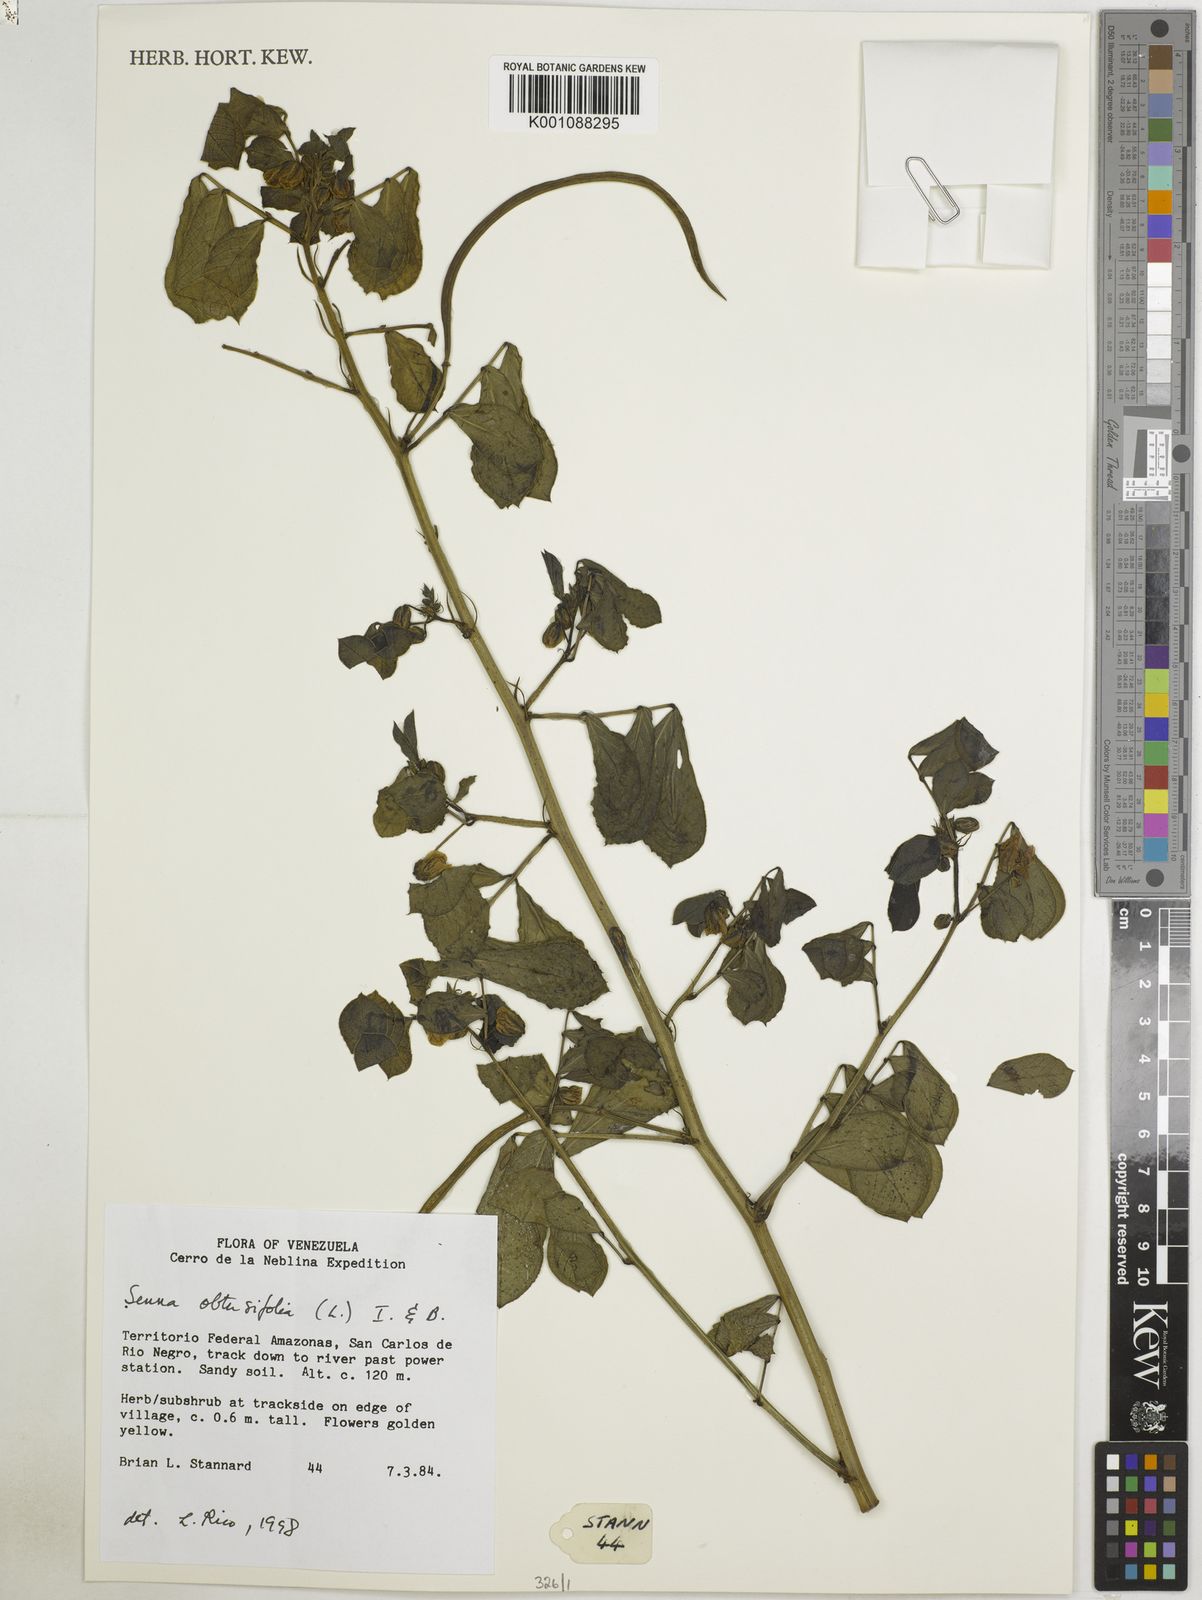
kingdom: Plantae
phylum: Tracheophyta
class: Magnoliopsida
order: Fabales
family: Fabaceae
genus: Senna
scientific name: Senna obtusifolia
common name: Java-bean
